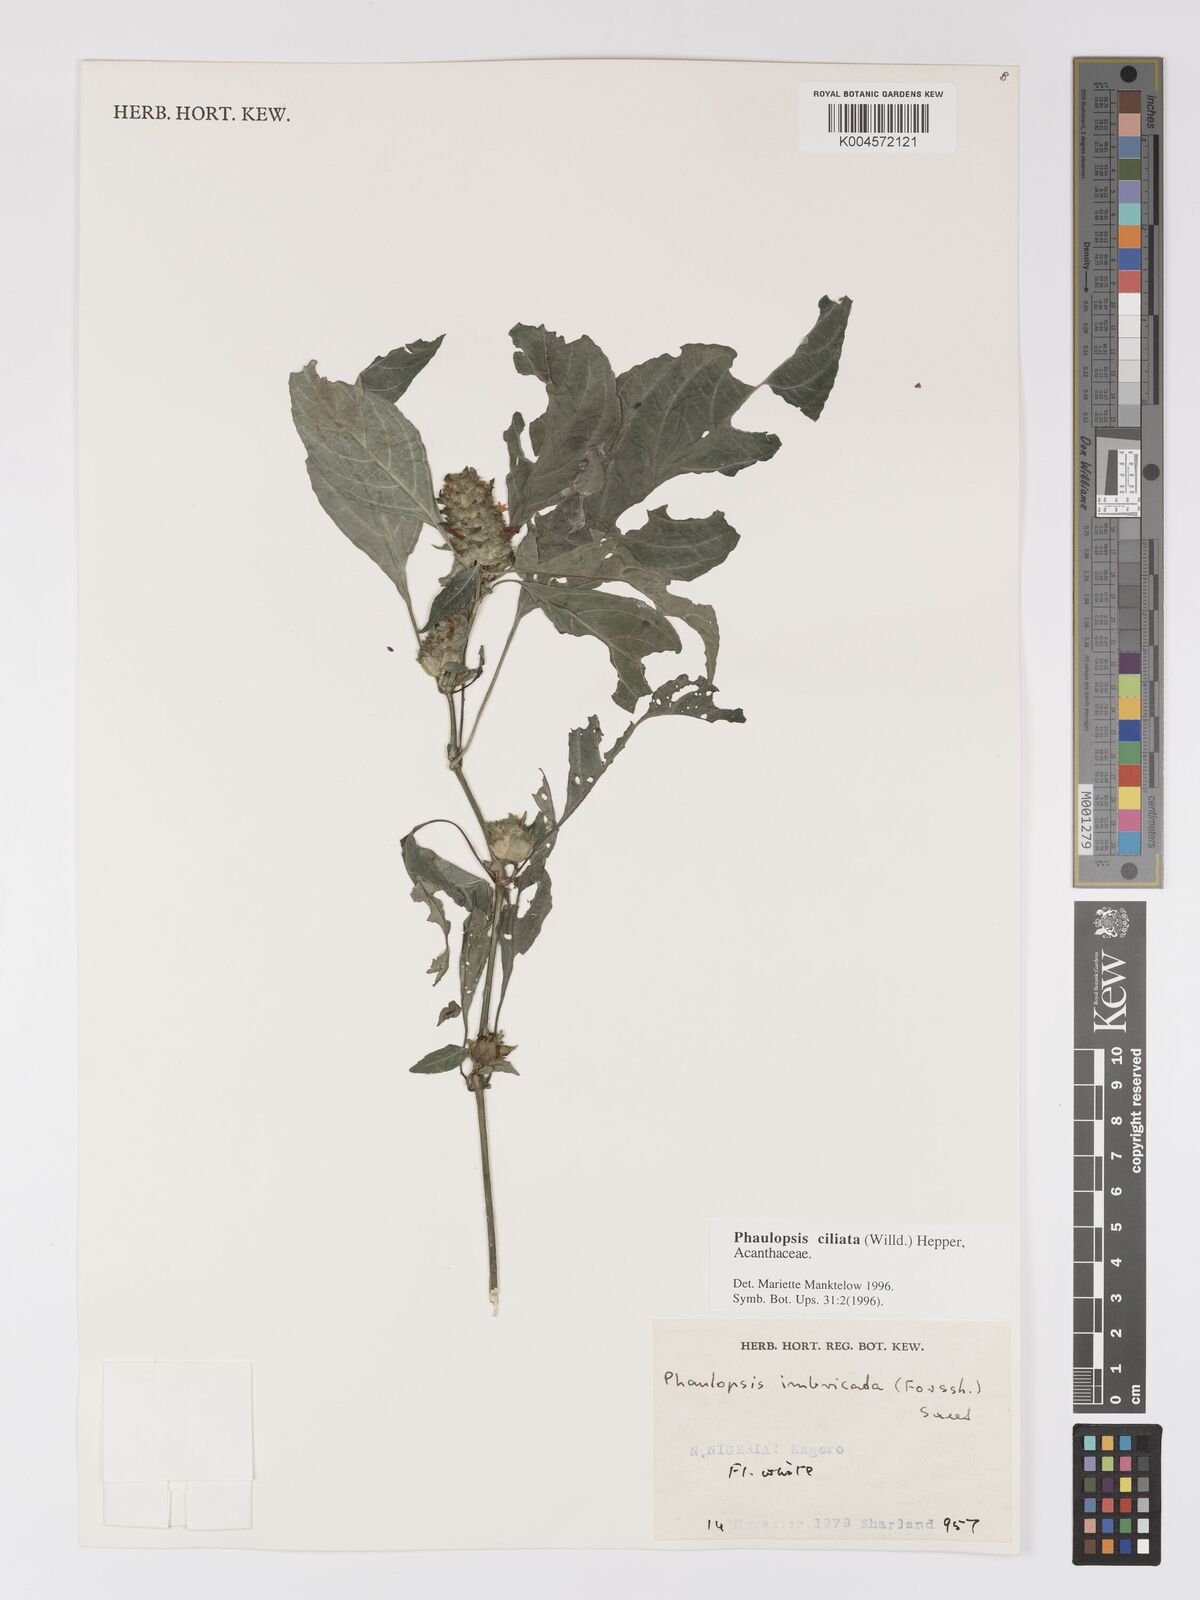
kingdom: Plantae
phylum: Tracheophyta
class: Magnoliopsida
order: Lamiales
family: Acanthaceae
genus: Phaulopsis
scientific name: Phaulopsis ciliata
